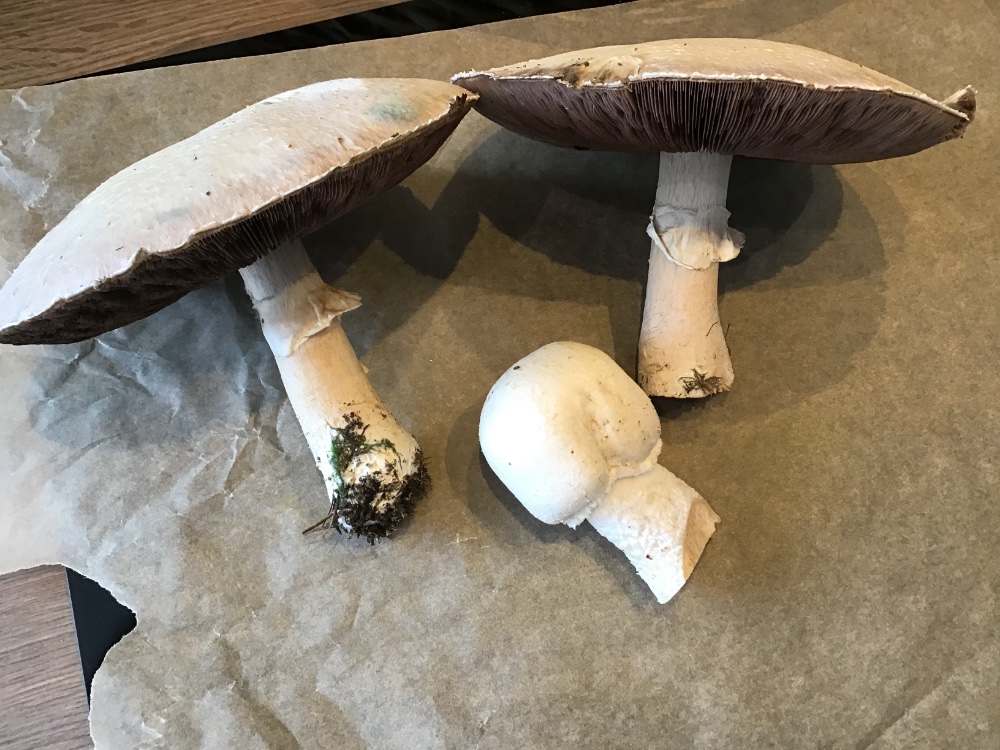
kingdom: Fungi
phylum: Basidiomycota
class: Agaricomycetes
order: Agaricales
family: Agaricaceae
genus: Agaricus
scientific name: Agaricus crocodilinus
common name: landsby-champignon
